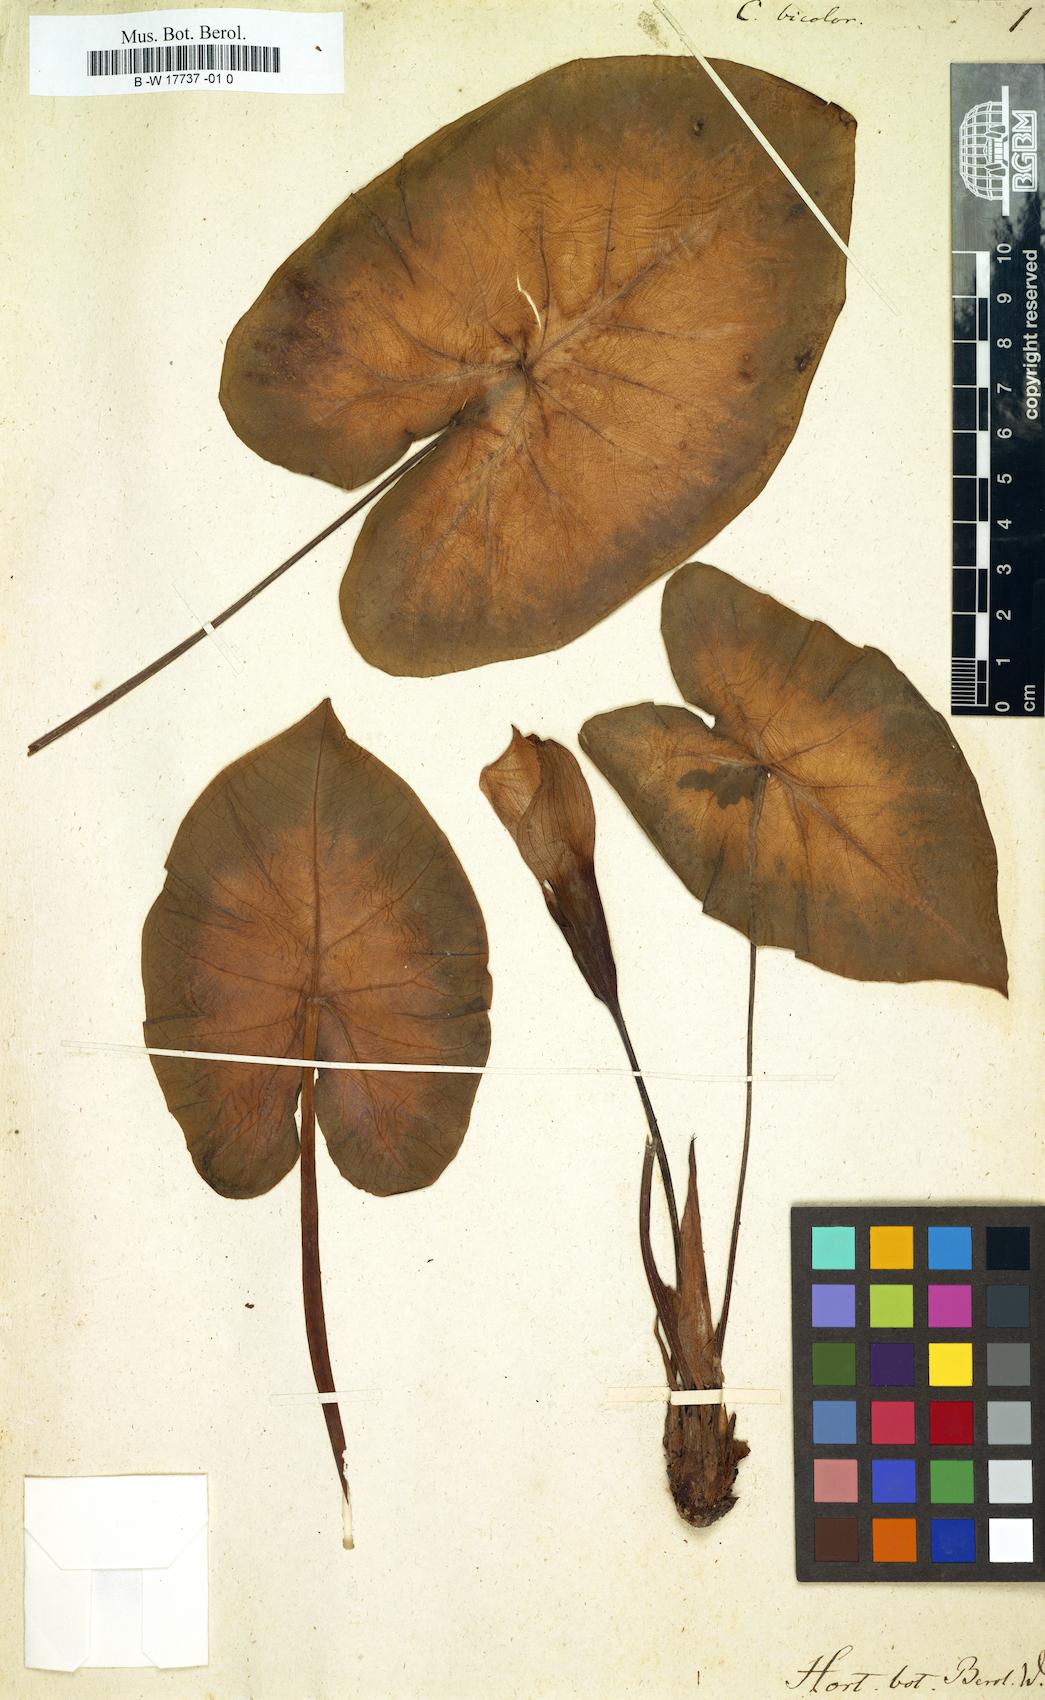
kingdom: Plantae
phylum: Tracheophyta
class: Liliopsida
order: Alismatales
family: Araceae
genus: Caladium
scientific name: Caladium bicolor
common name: Artist's pallet
